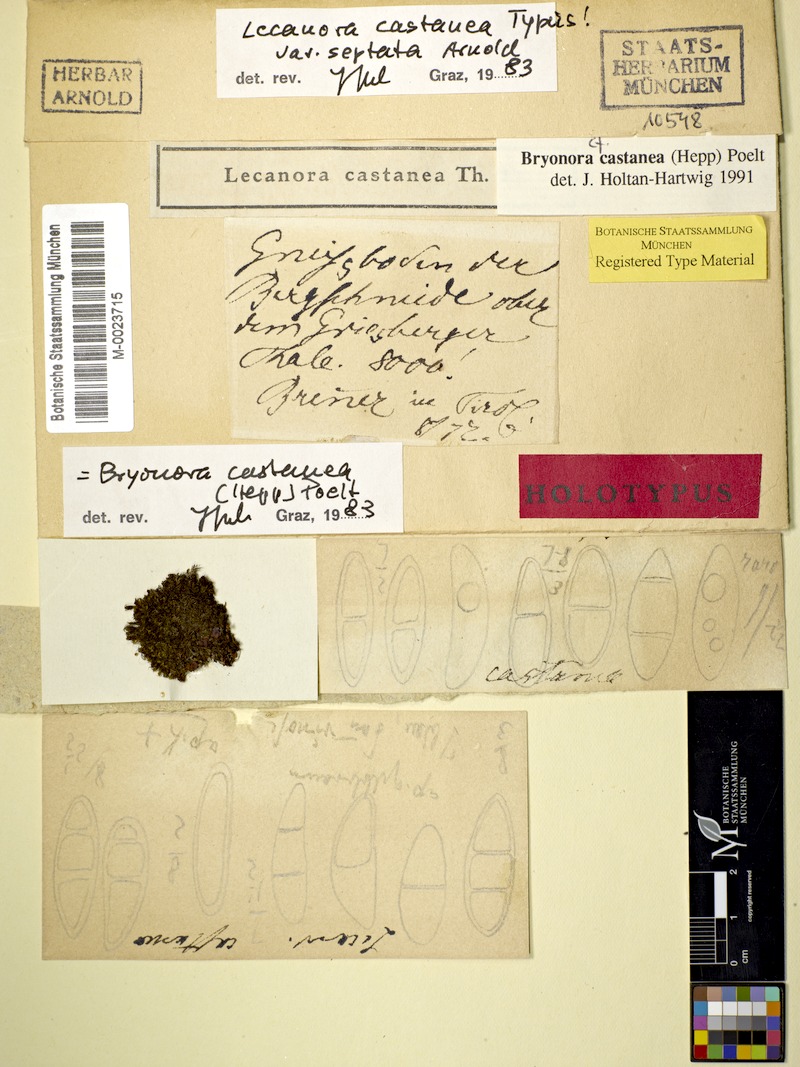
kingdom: Fungi
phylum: Ascomycota
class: Lecanoromycetes
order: Lecanorales
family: Lecanoraceae
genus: Bryonora
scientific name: Bryonora castanea
